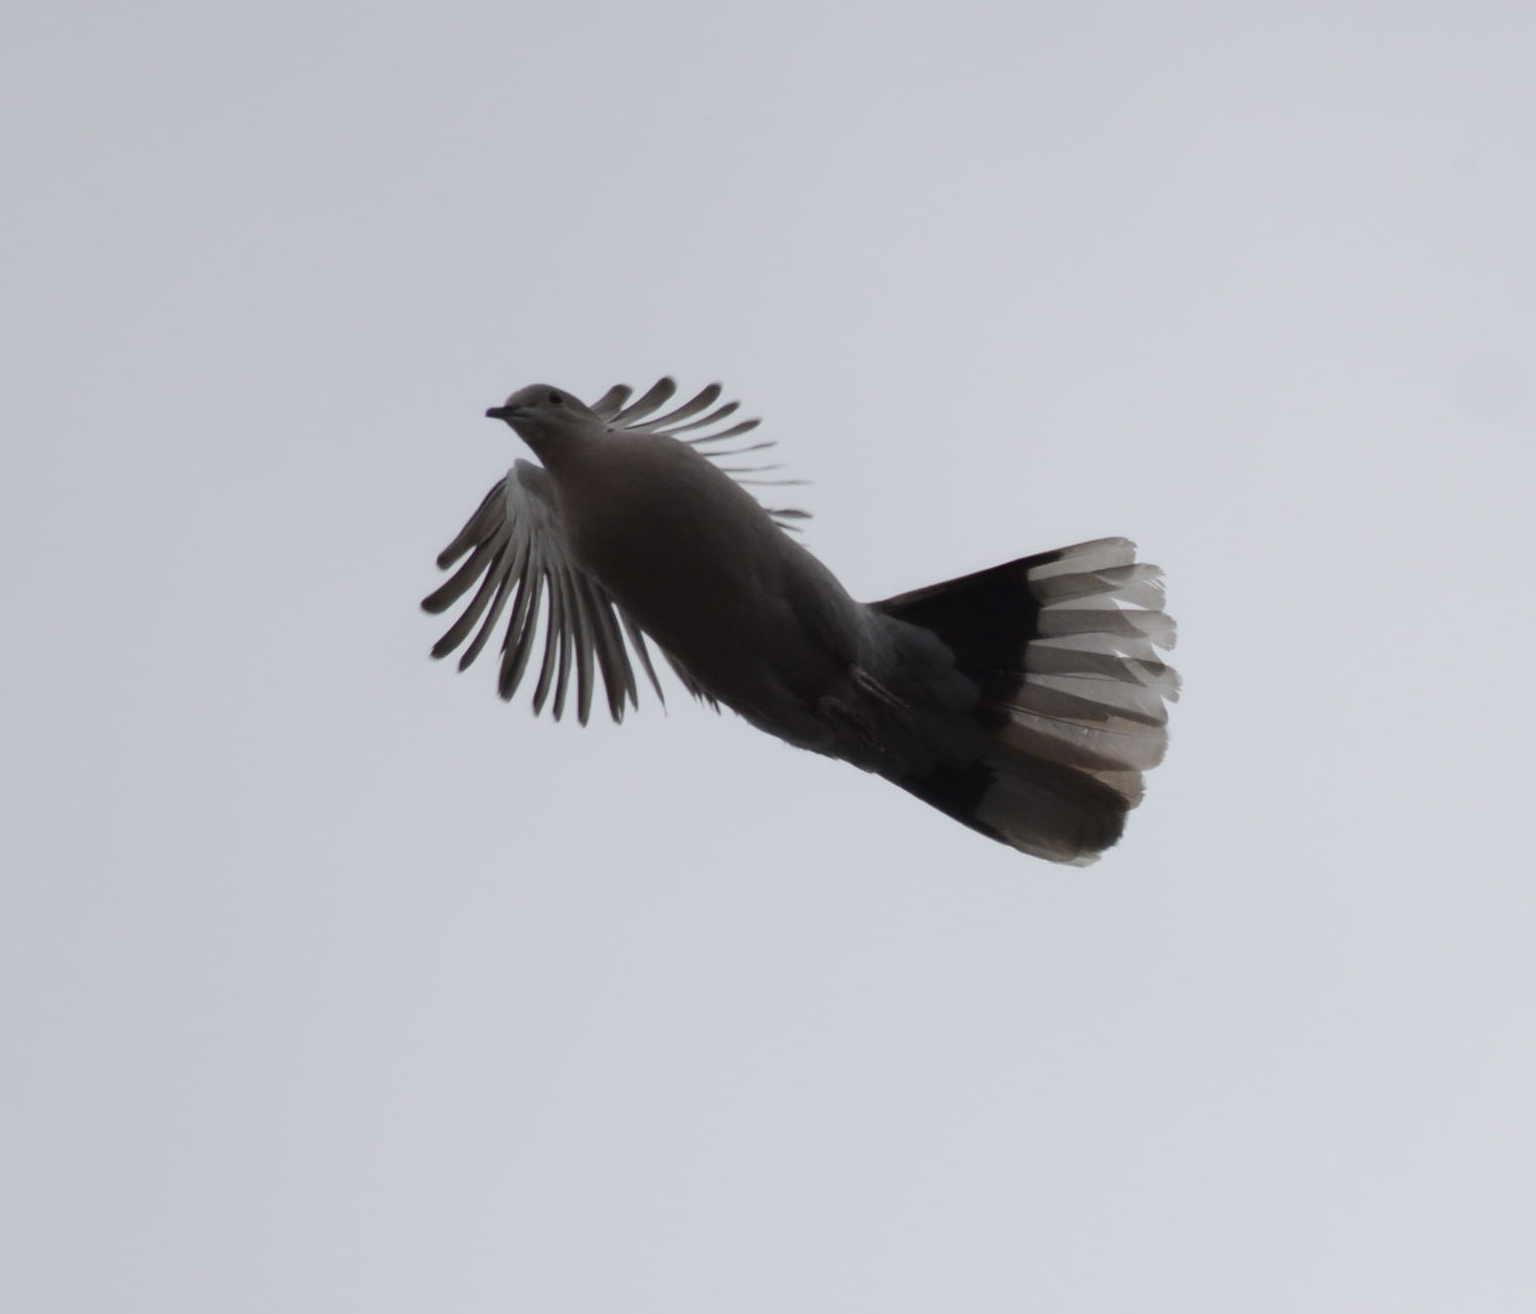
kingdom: Animalia
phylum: Chordata
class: Aves
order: Columbiformes
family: Columbidae
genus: Streptopelia
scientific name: Streptopelia decaocto
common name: Eurasian collared dove
